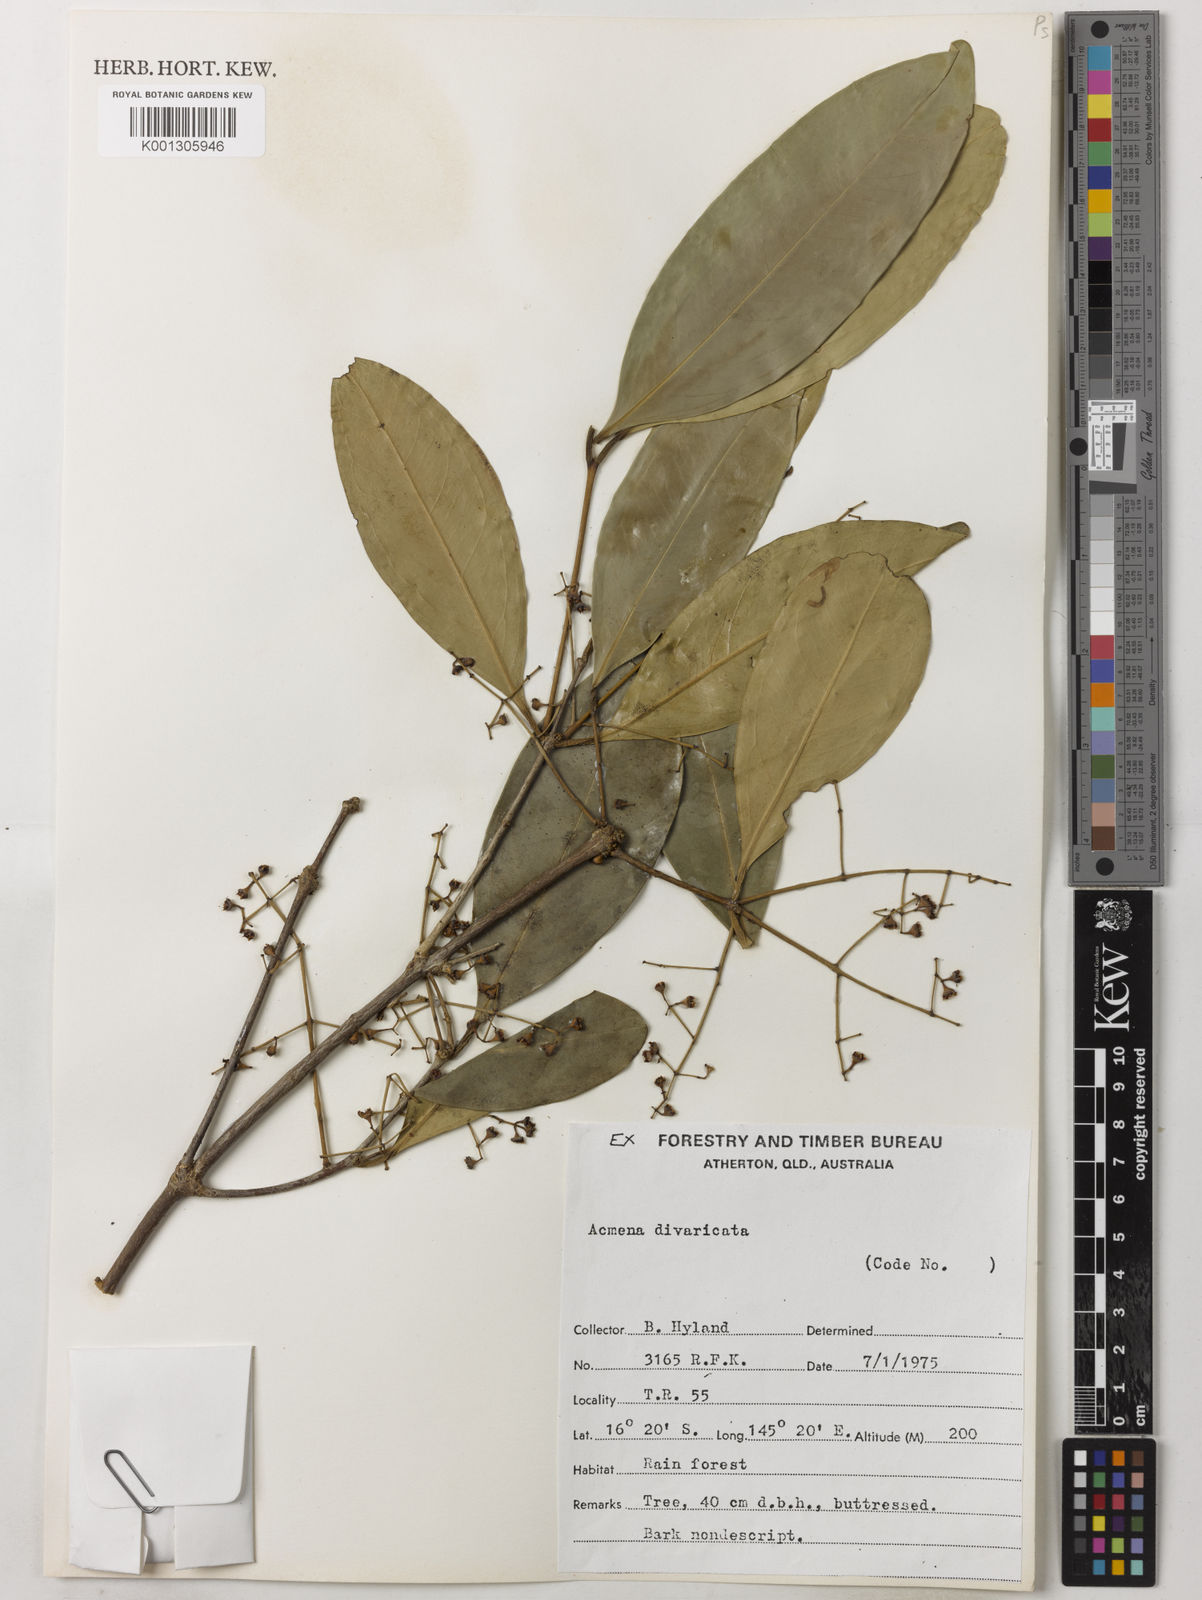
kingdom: Plantae
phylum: Tracheophyta
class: Magnoliopsida
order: Myrtales
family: Myrtaceae
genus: Syzygium
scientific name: Syzygium divaricatum
